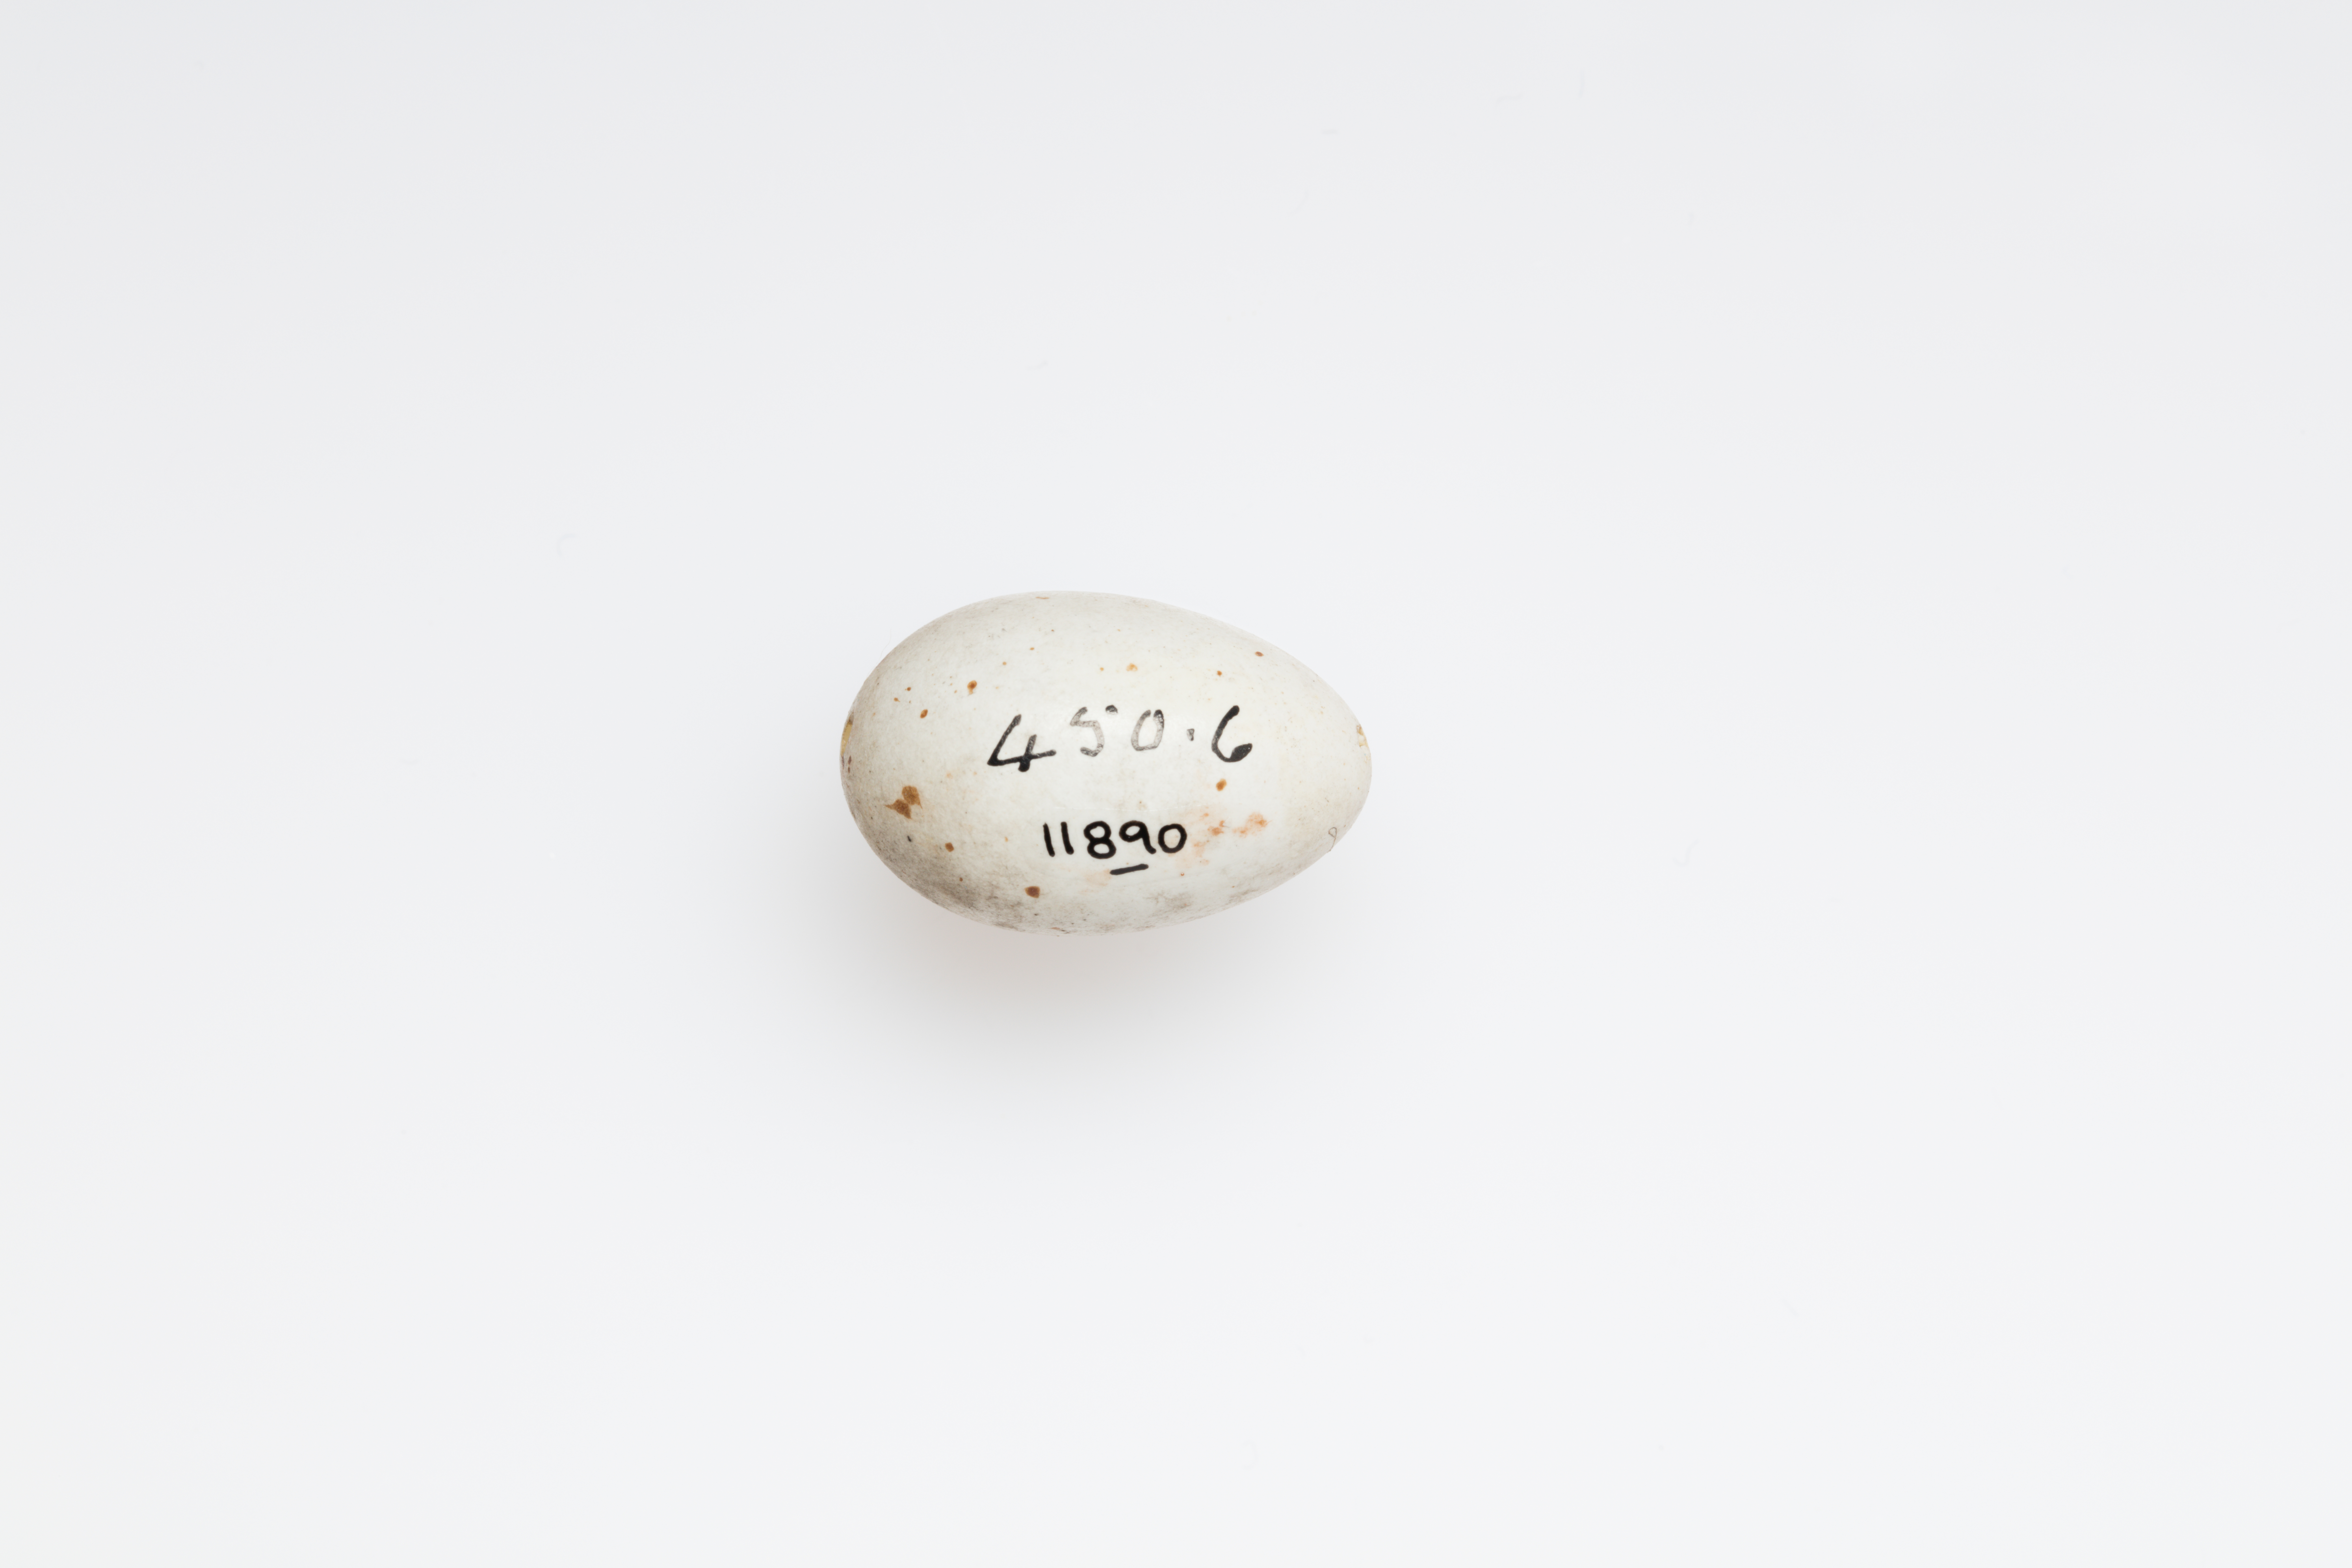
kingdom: Animalia
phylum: Chordata
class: Aves
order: Passeriformes
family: Fringillidae
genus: Linaria
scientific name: Linaria cannabina
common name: Common linnet
